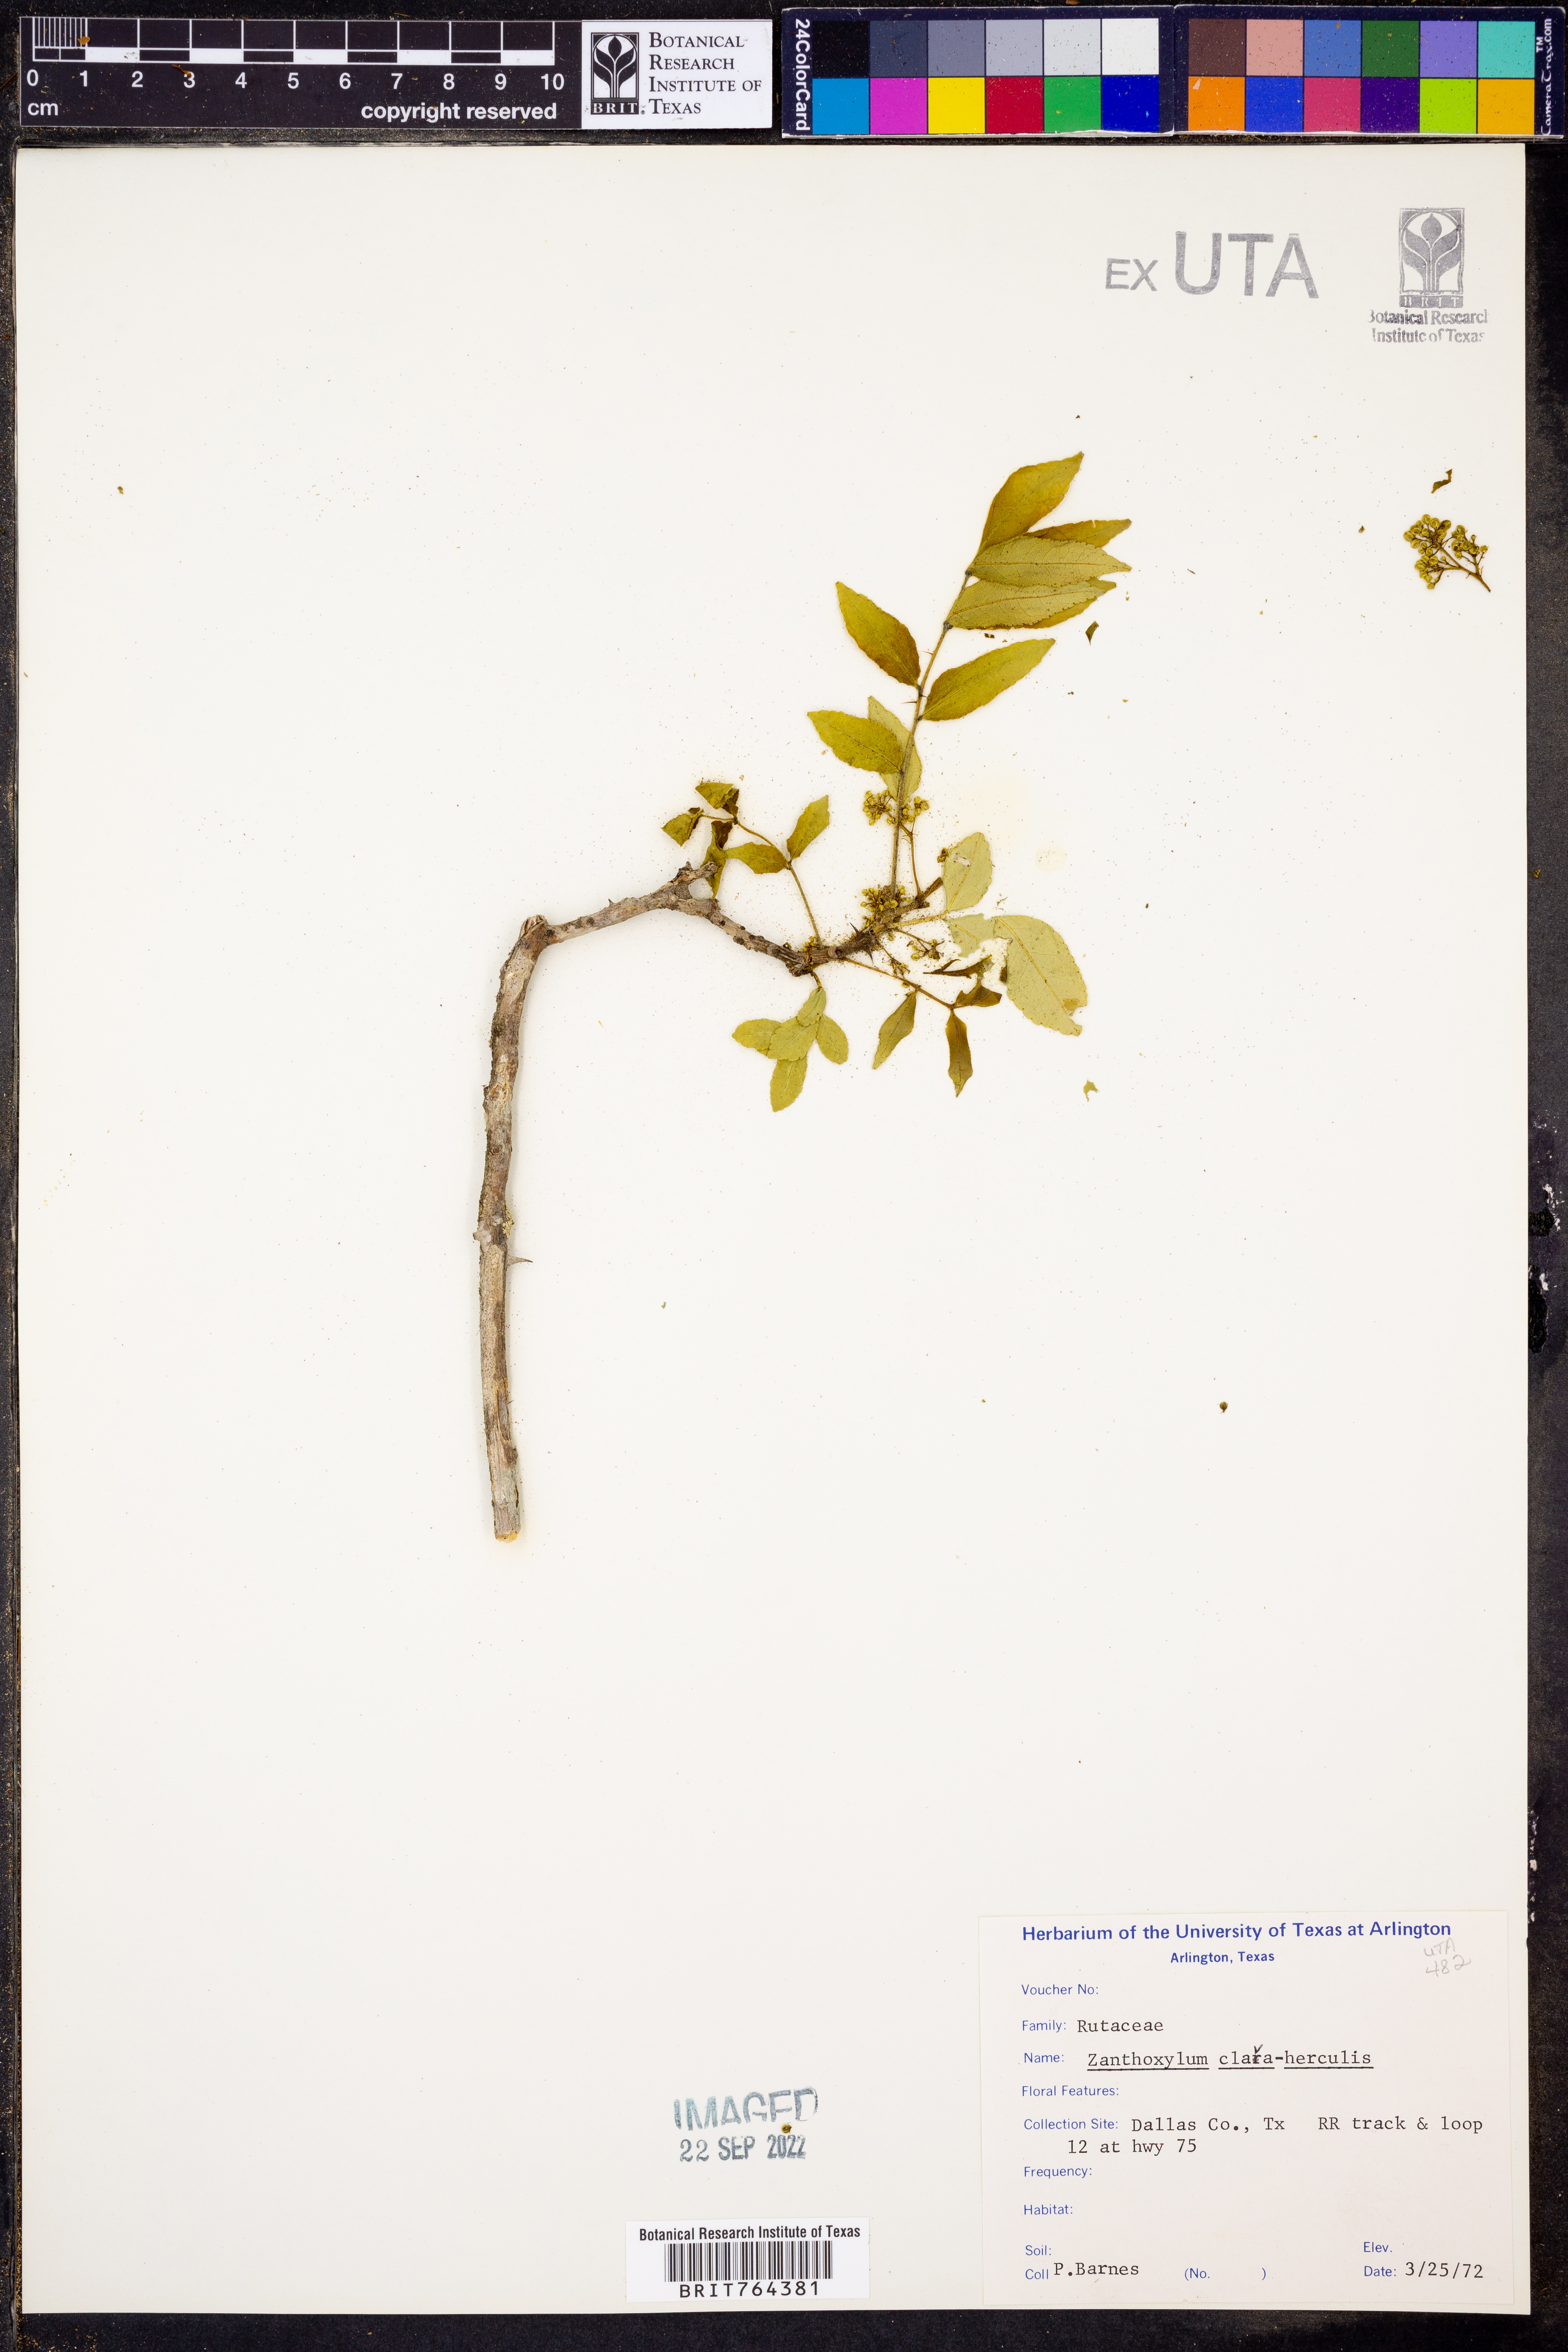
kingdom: Plantae
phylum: Tracheophyta
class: Magnoliopsida
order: Sapindales
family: Rutaceae
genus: Zanthoxylum
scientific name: Zanthoxylum avicennae
